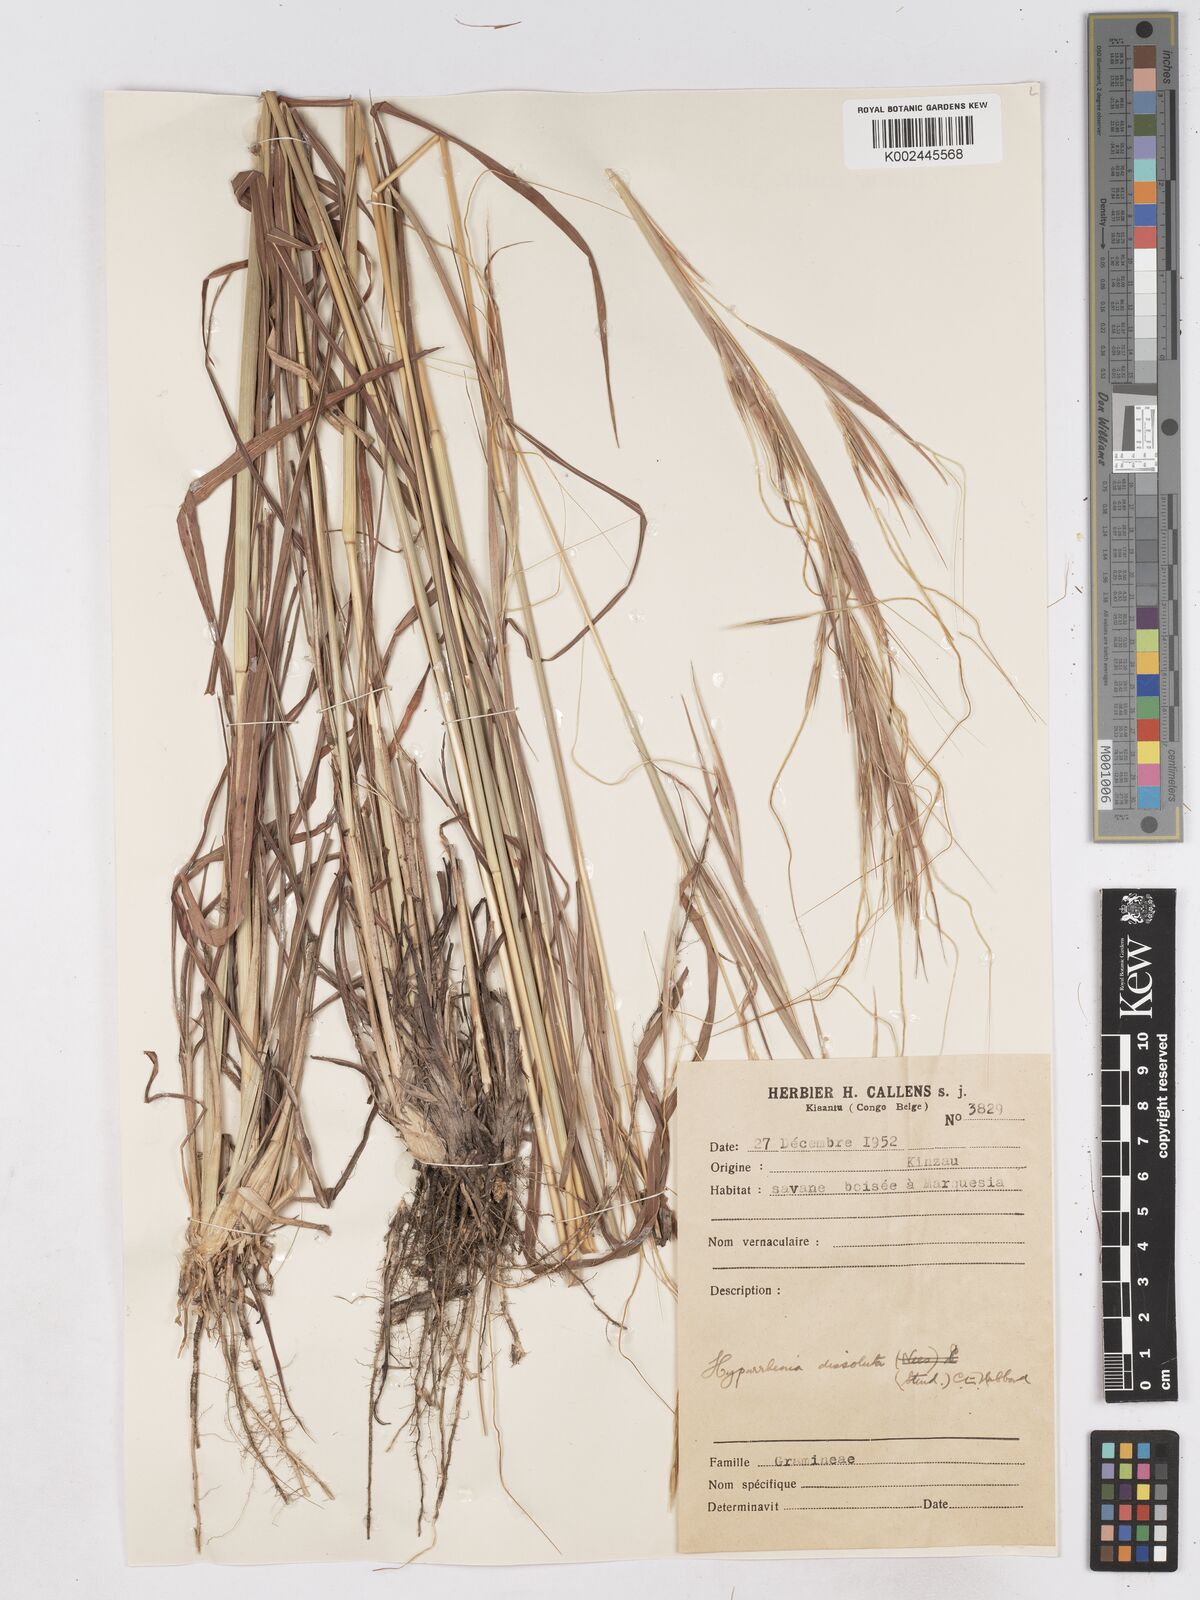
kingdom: Plantae
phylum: Tracheophyta
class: Liliopsida
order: Poales
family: Poaceae
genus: Hyperthelia
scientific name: Hyperthelia dissoluta
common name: Yellow thatching grass
